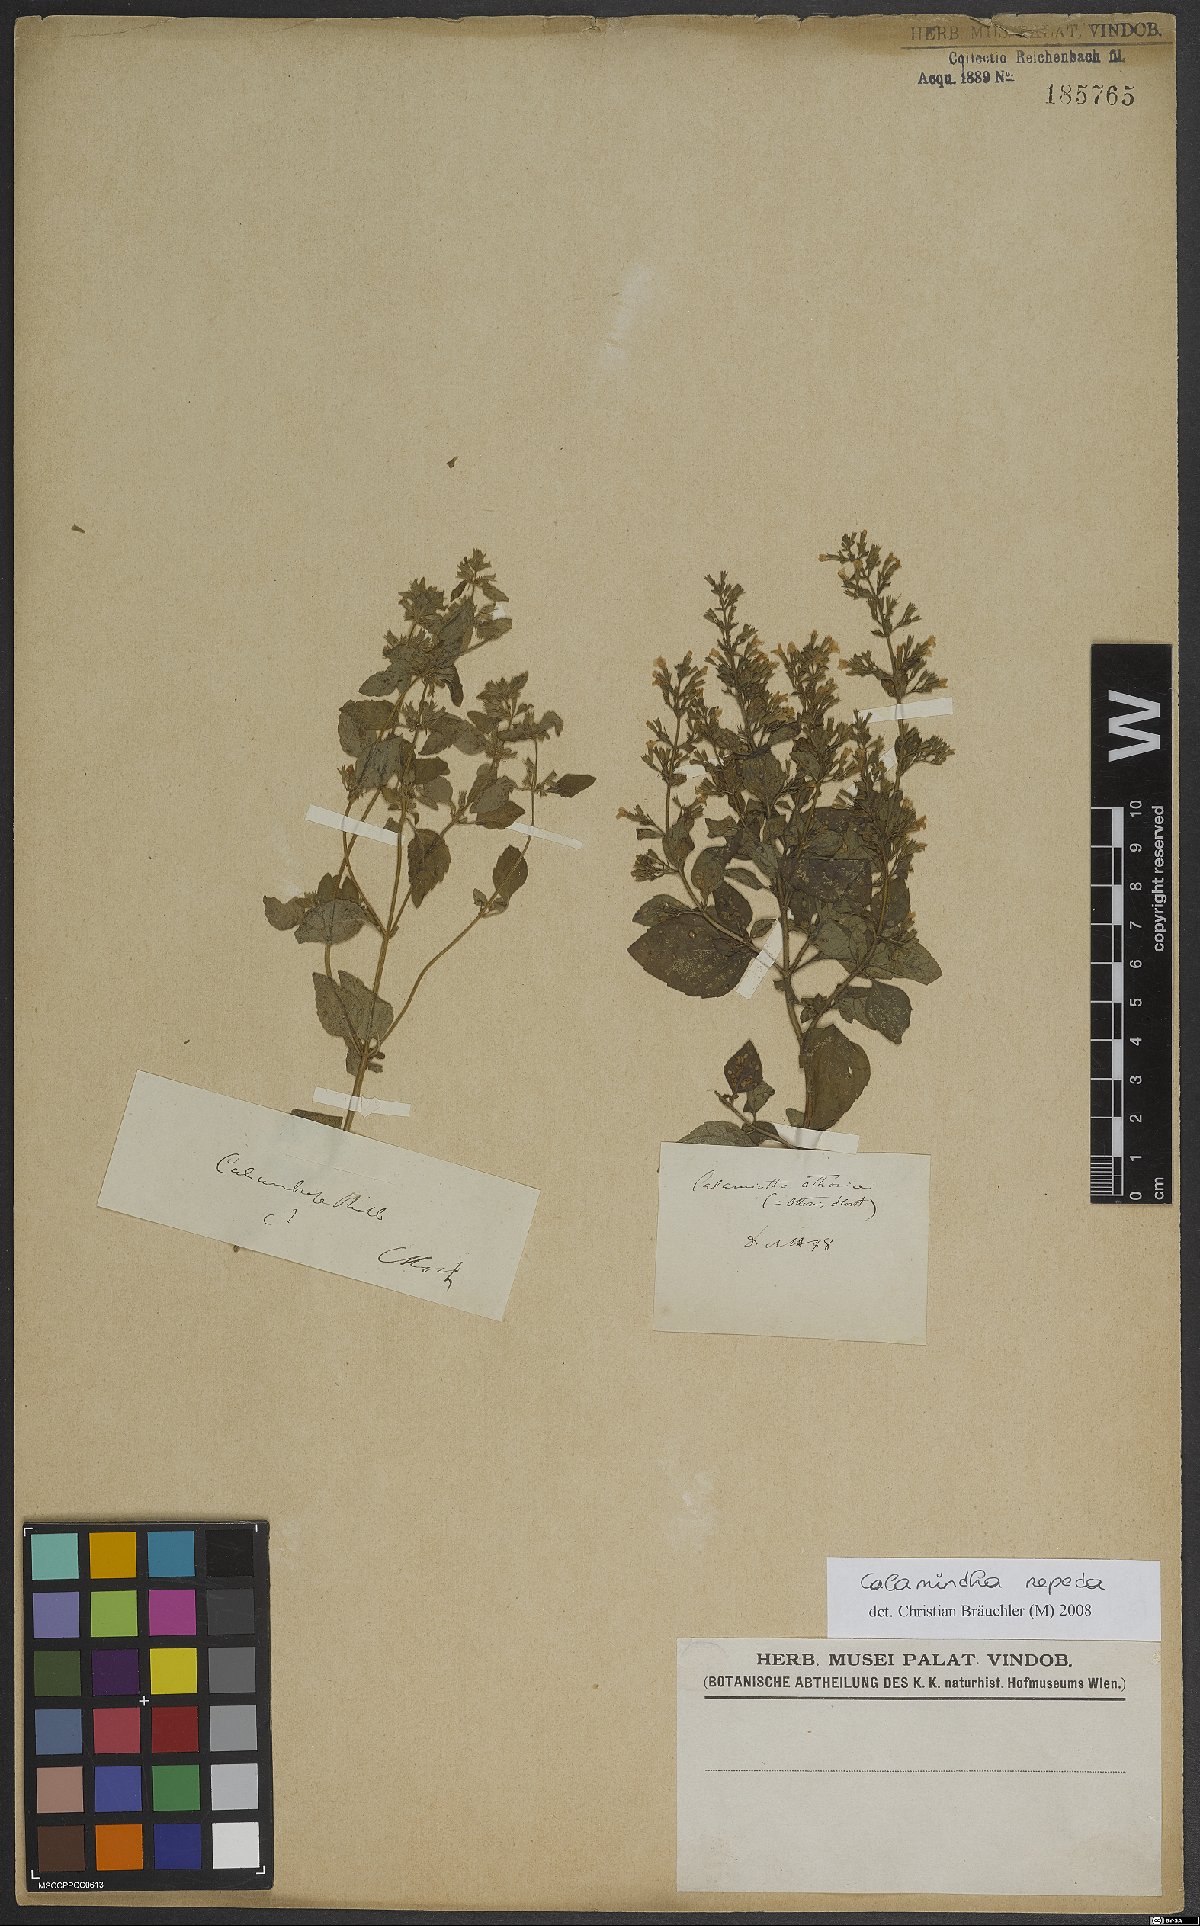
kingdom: Plantae
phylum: Tracheophyta
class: Magnoliopsida
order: Lamiales
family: Lamiaceae
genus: Clinopodium
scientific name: Clinopodium nepeta
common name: Lesser calamint
